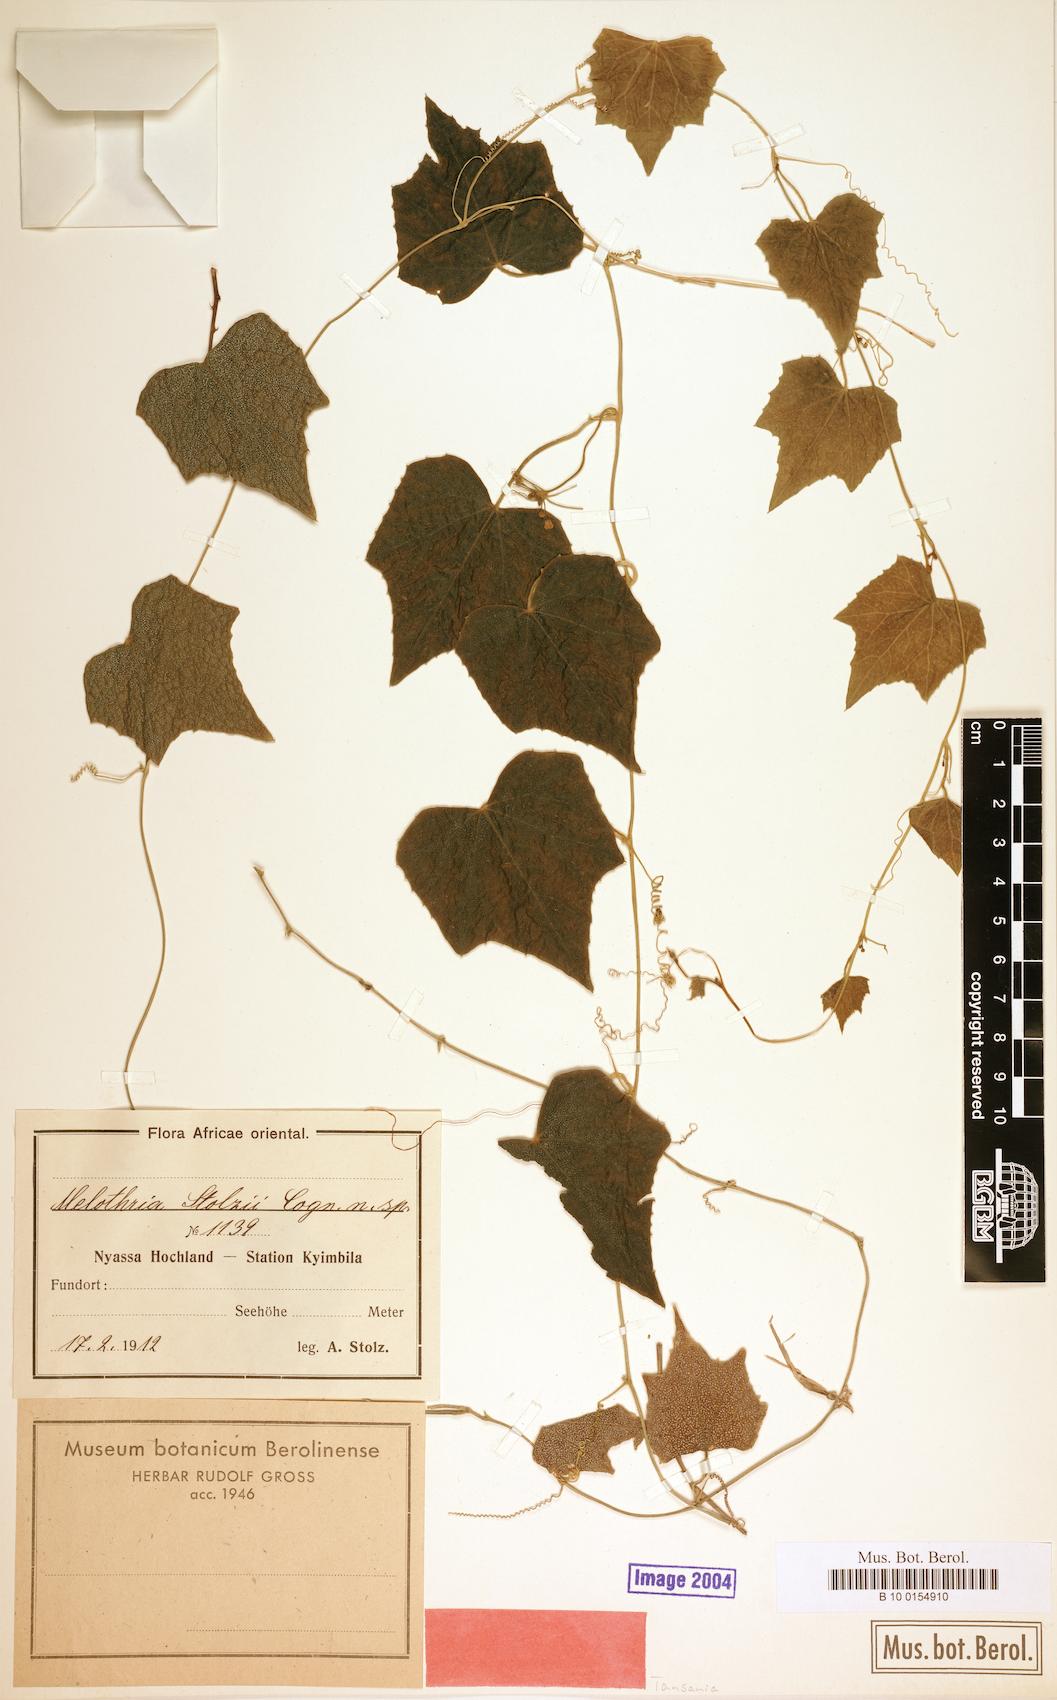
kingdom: Plantae
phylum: Tracheophyta
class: Magnoliopsida
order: Cucurbitales
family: Cucurbitaceae
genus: Zehneria
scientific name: Zehneria minutiflora
